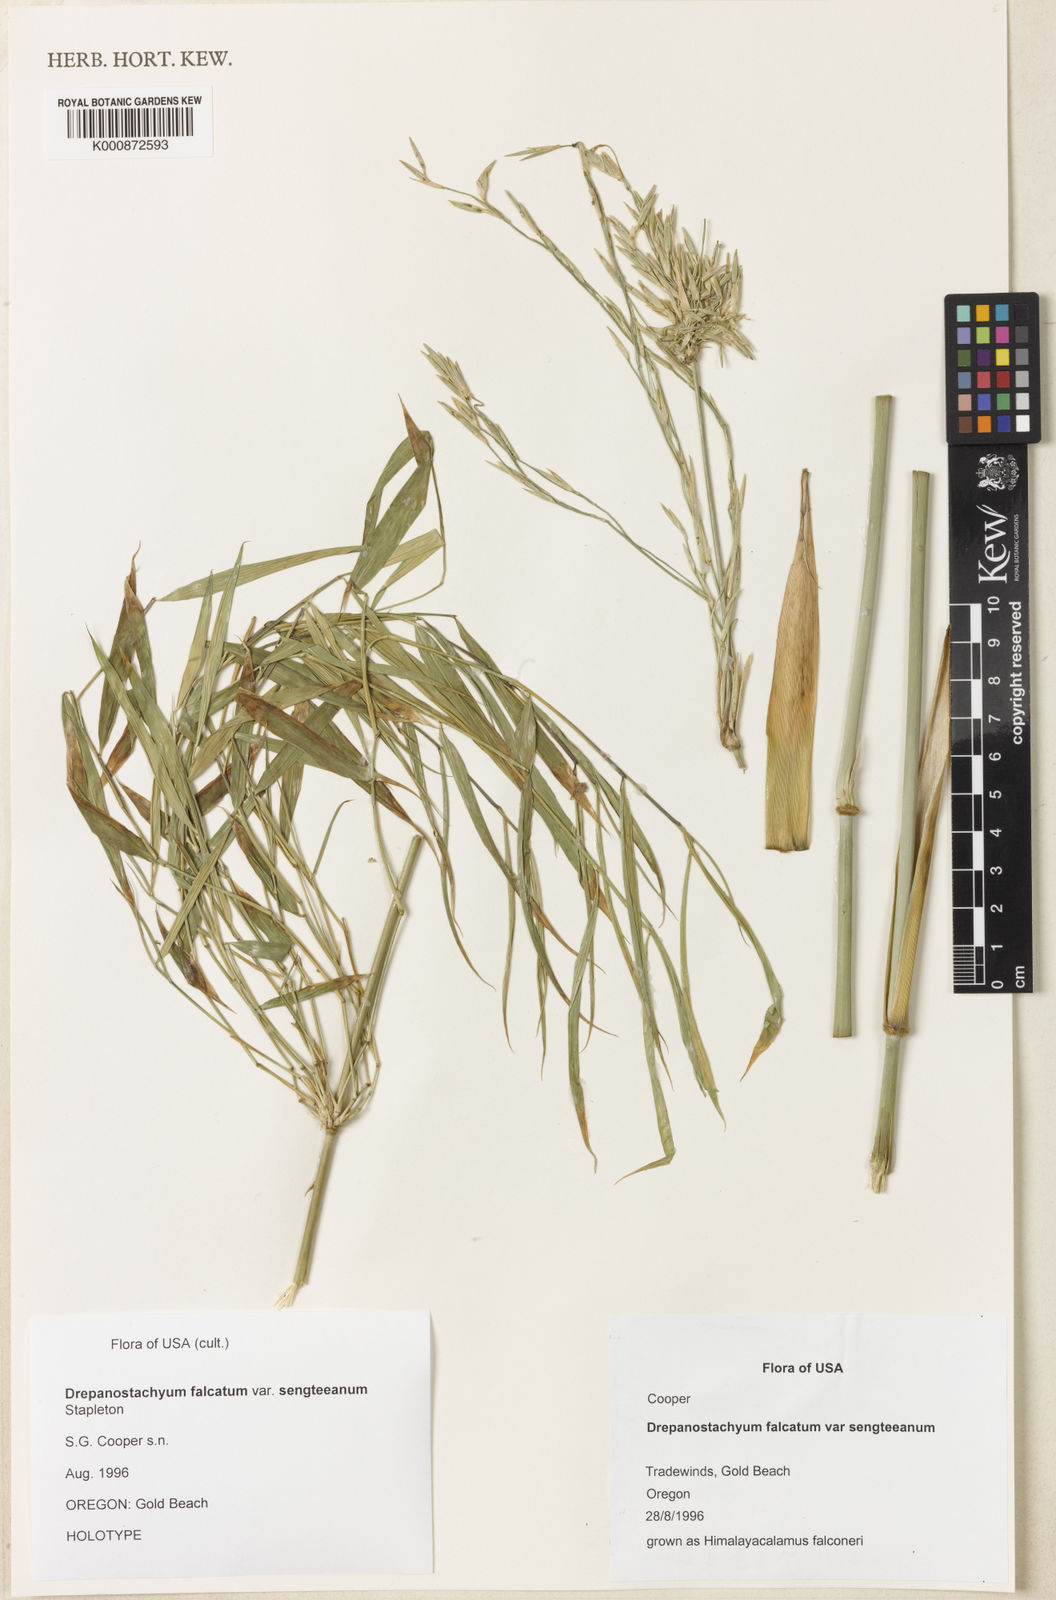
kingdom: Plantae
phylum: Tracheophyta
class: Liliopsida
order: Poales
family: Poaceae
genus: Drepanostachyum
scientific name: Drepanostachyum falcatum
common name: Himalayan bamboo
